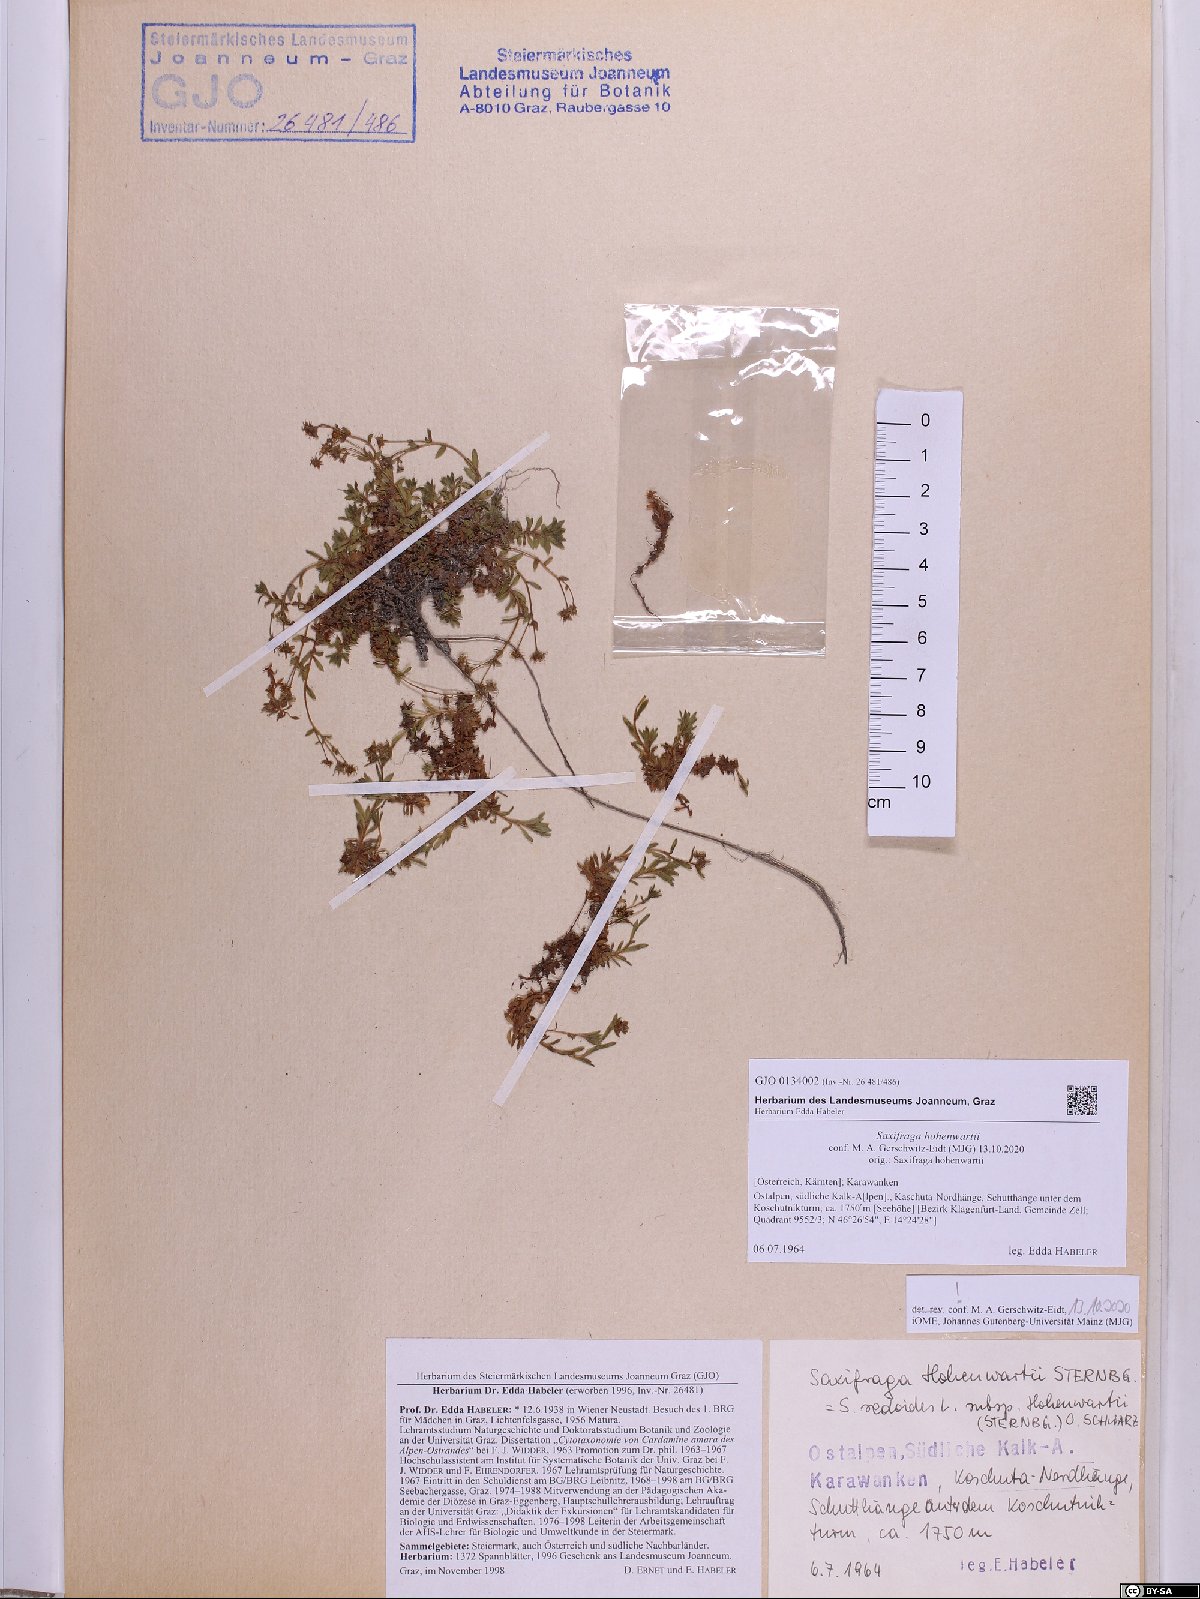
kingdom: Plantae
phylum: Tracheophyta
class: Magnoliopsida
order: Saxifragales
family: Saxifragaceae
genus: Saxifraga
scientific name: Saxifraga hohenwartii
